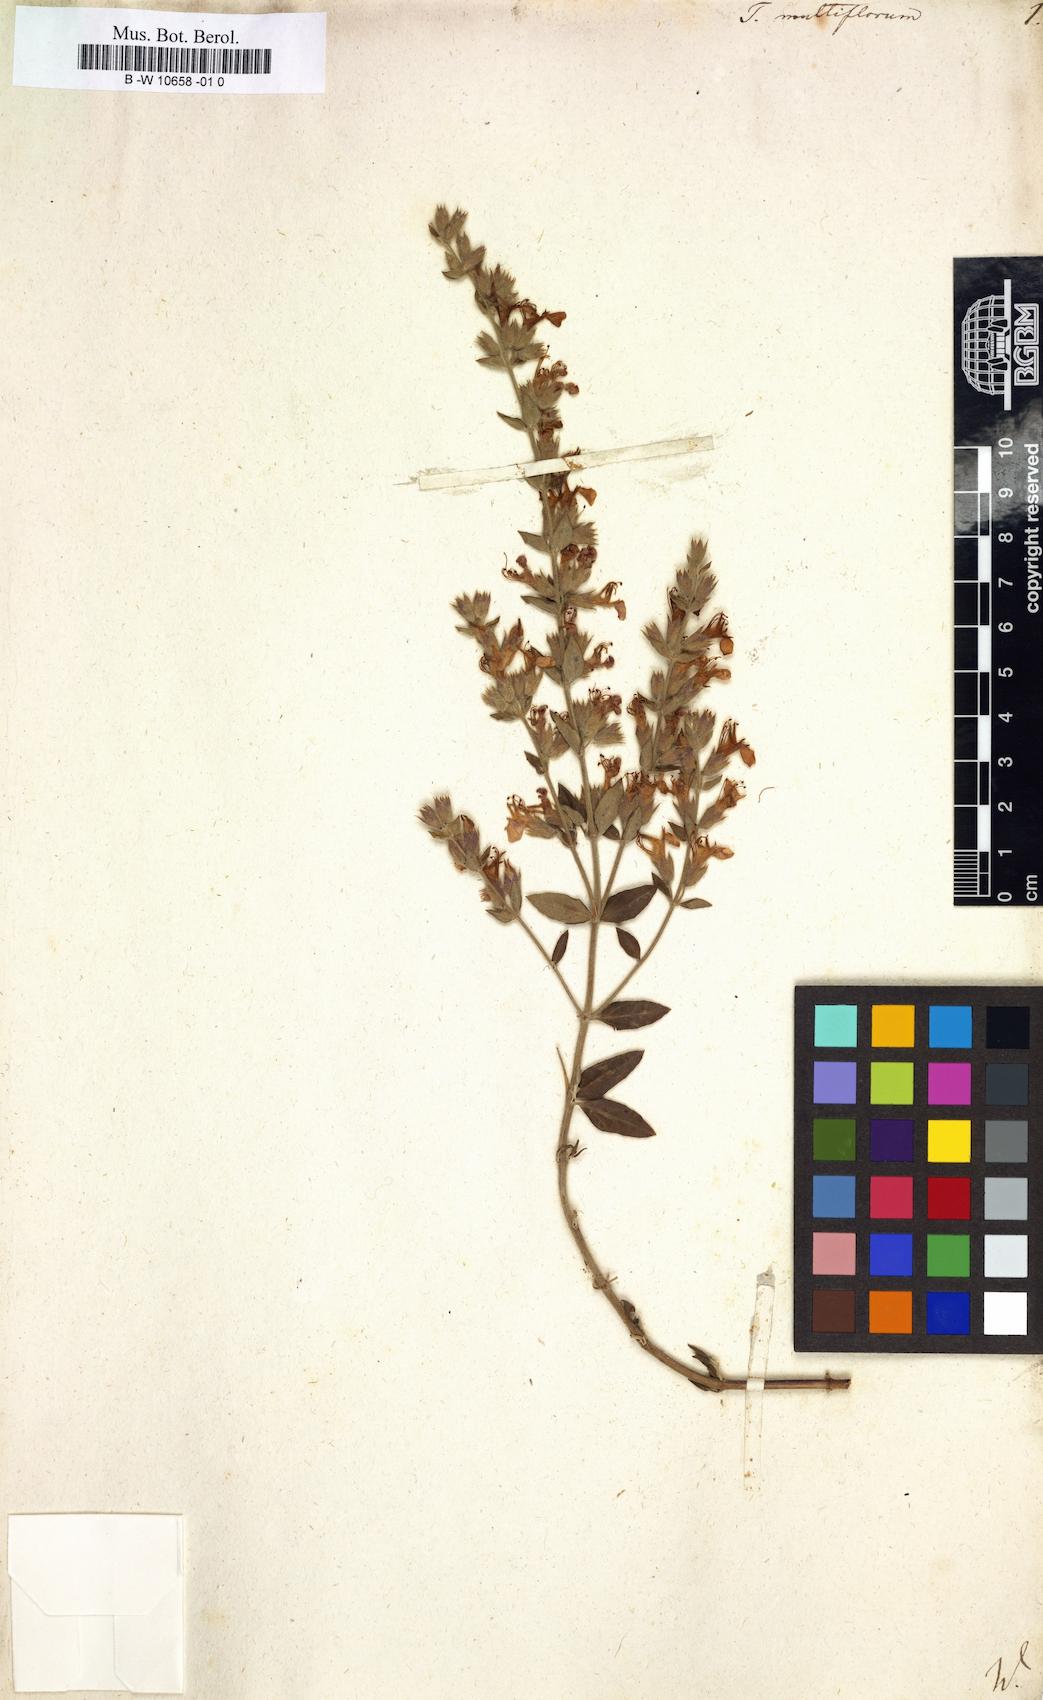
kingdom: Plantae
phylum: Tracheophyta
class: Magnoliopsida
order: Lamiales
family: Lamiaceae
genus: Teucrium
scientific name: Teucrium chamaedrys
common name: Wall germander
